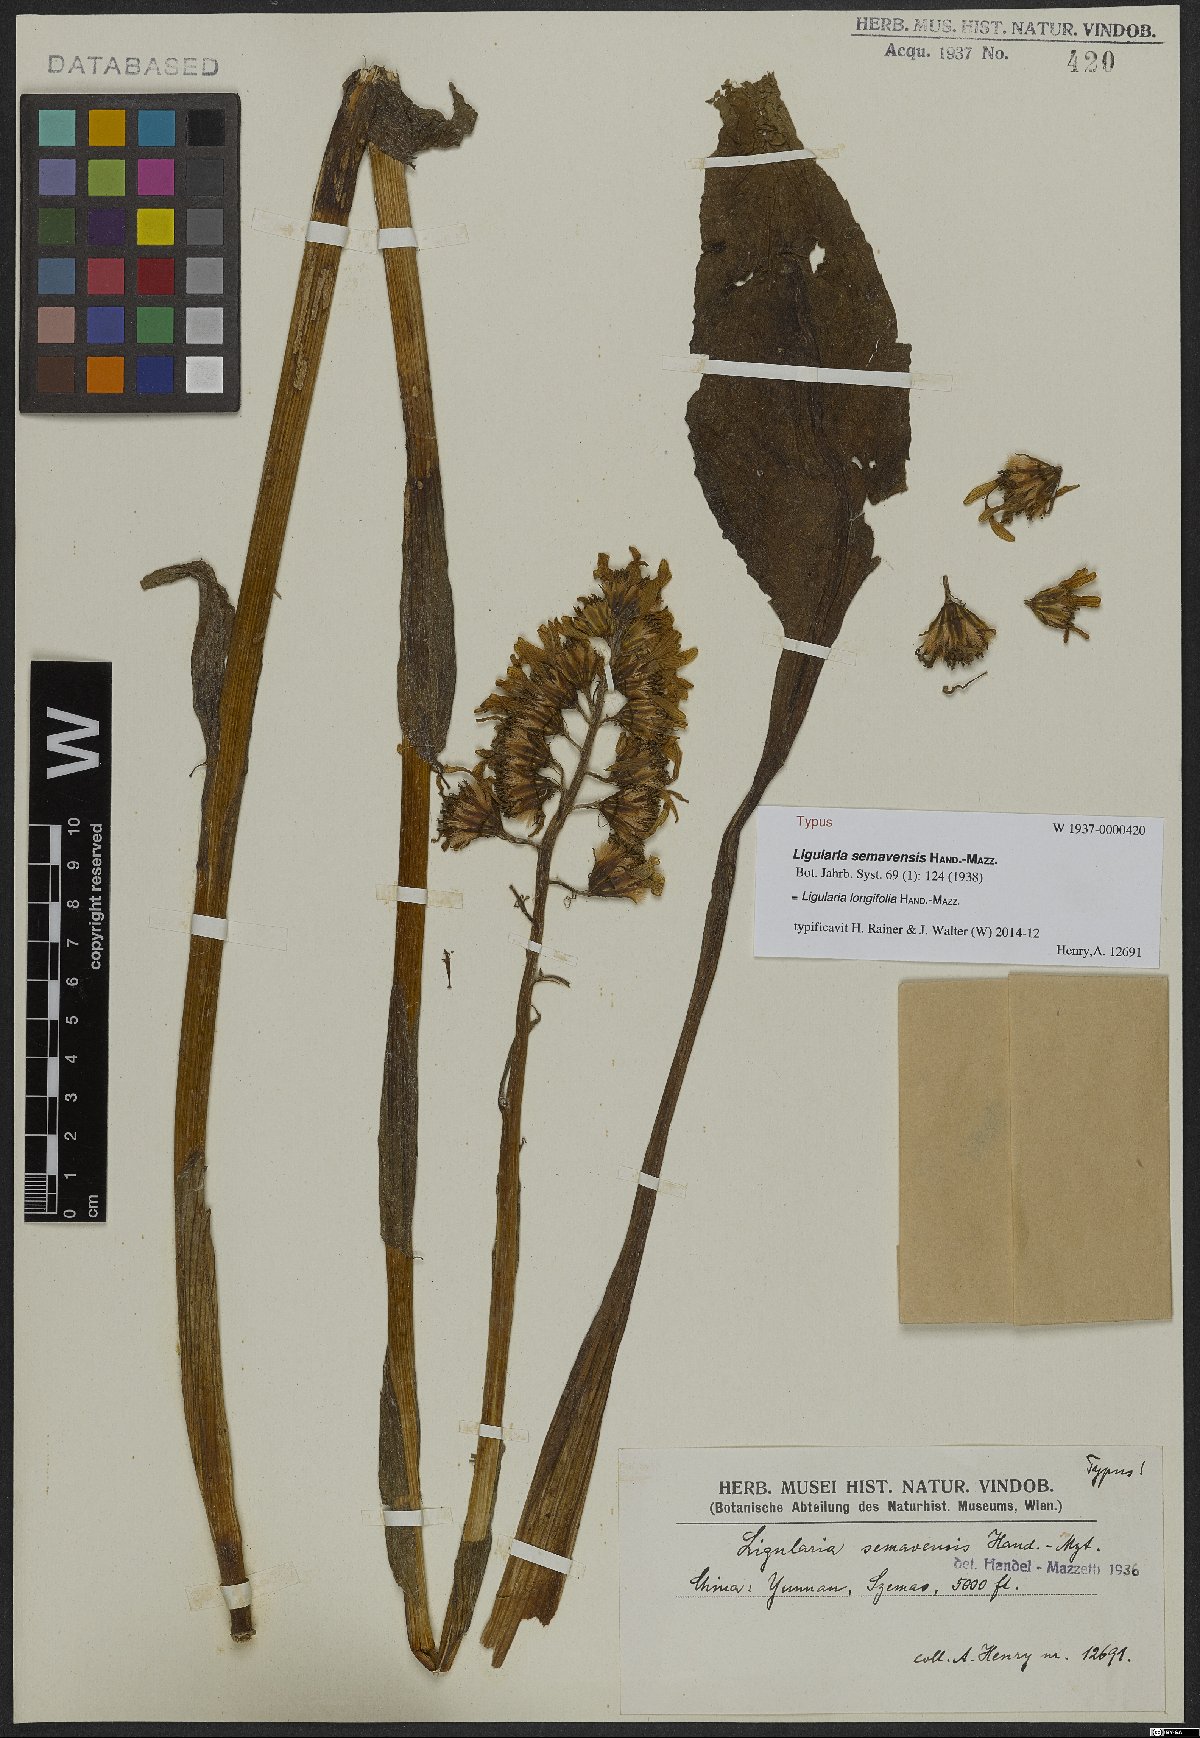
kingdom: Plantae
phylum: Tracheophyta
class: Magnoliopsida
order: Asterales
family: Asteraceae
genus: Ligularia
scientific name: Ligularia longifolia
